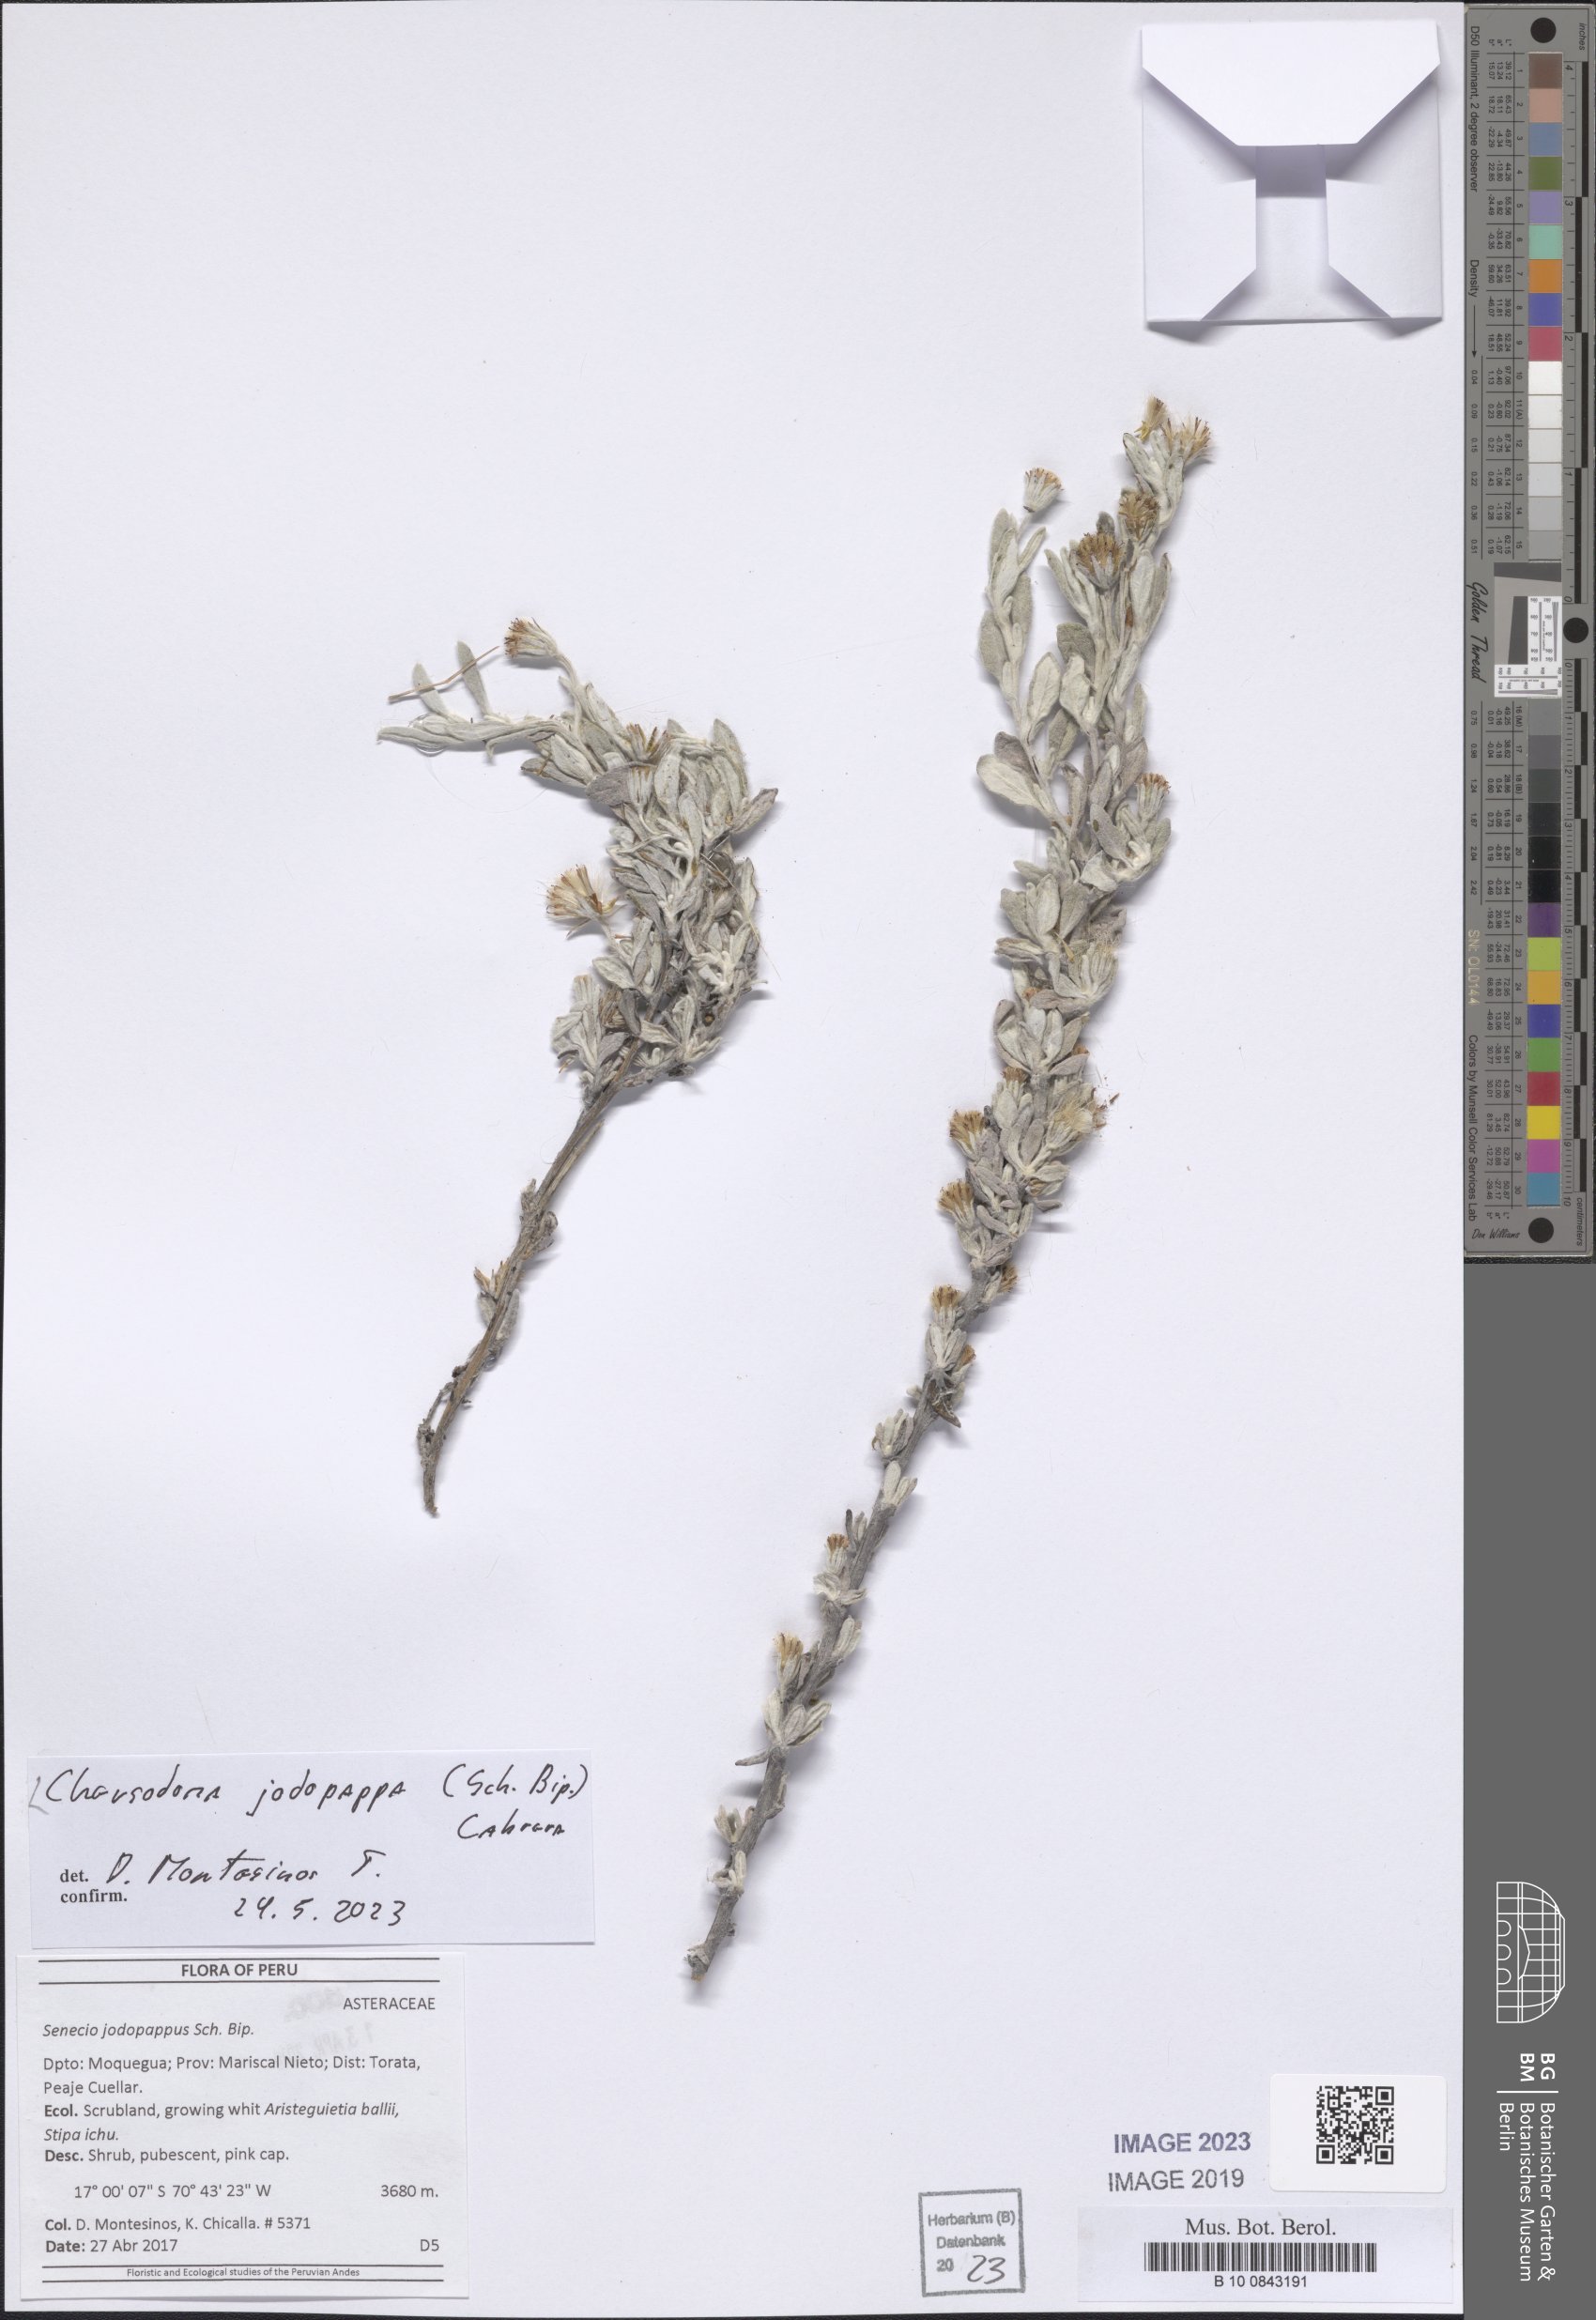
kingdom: Plantae
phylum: Tracheophyta
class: Magnoliopsida
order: Asterales
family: Asteraceae
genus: Chersodoma
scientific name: Chersodoma jodopappa
